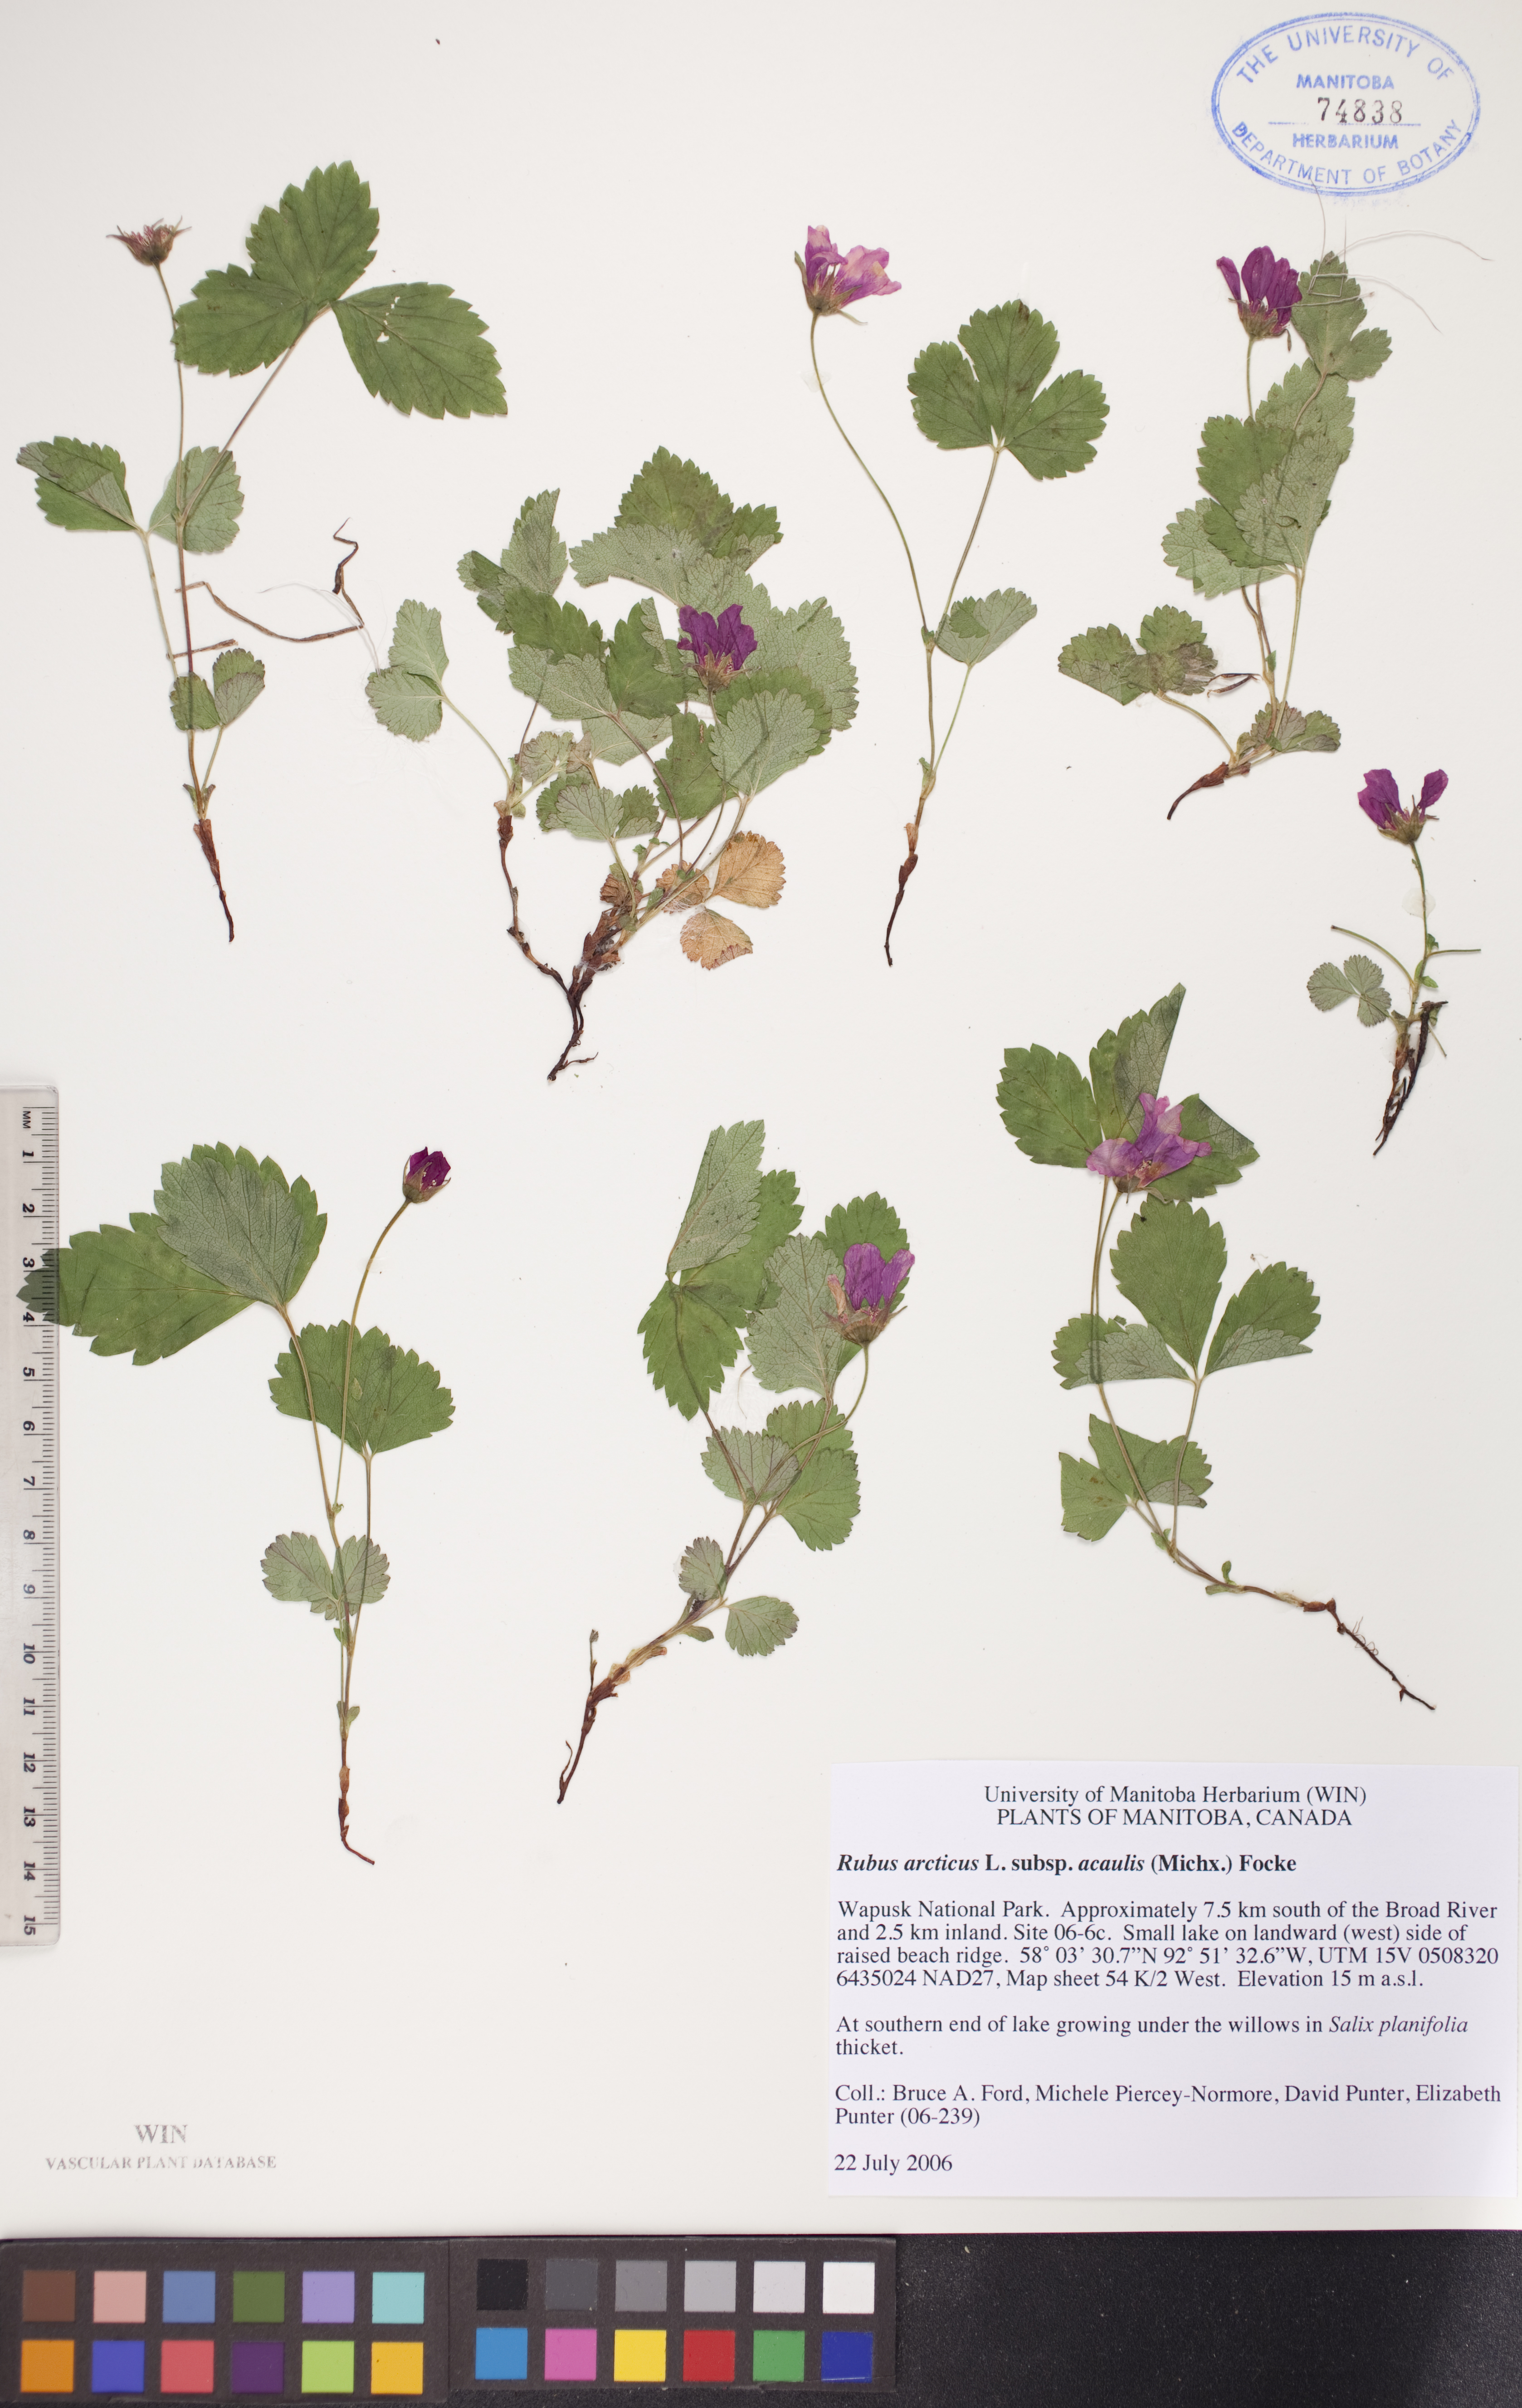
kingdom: Plantae
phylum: Tracheophyta
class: Magnoliopsida
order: Rosales
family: Rosaceae
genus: Rubus
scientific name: Rubus arcticus
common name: Arctic bramble
